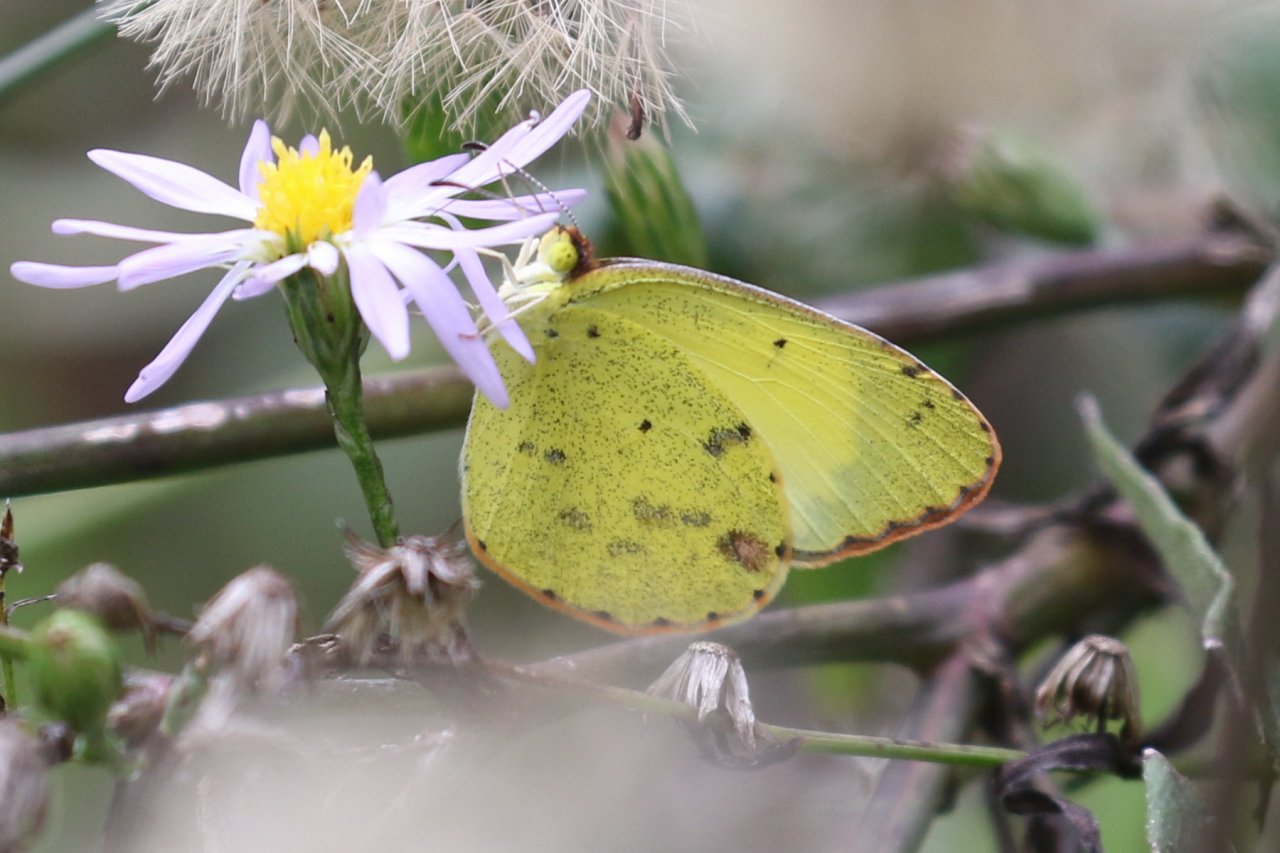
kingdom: Animalia
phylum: Arthropoda
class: Insecta
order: Lepidoptera
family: Pieridae
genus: Pyrisitia
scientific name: Pyrisitia lisa
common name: Little Yellow
